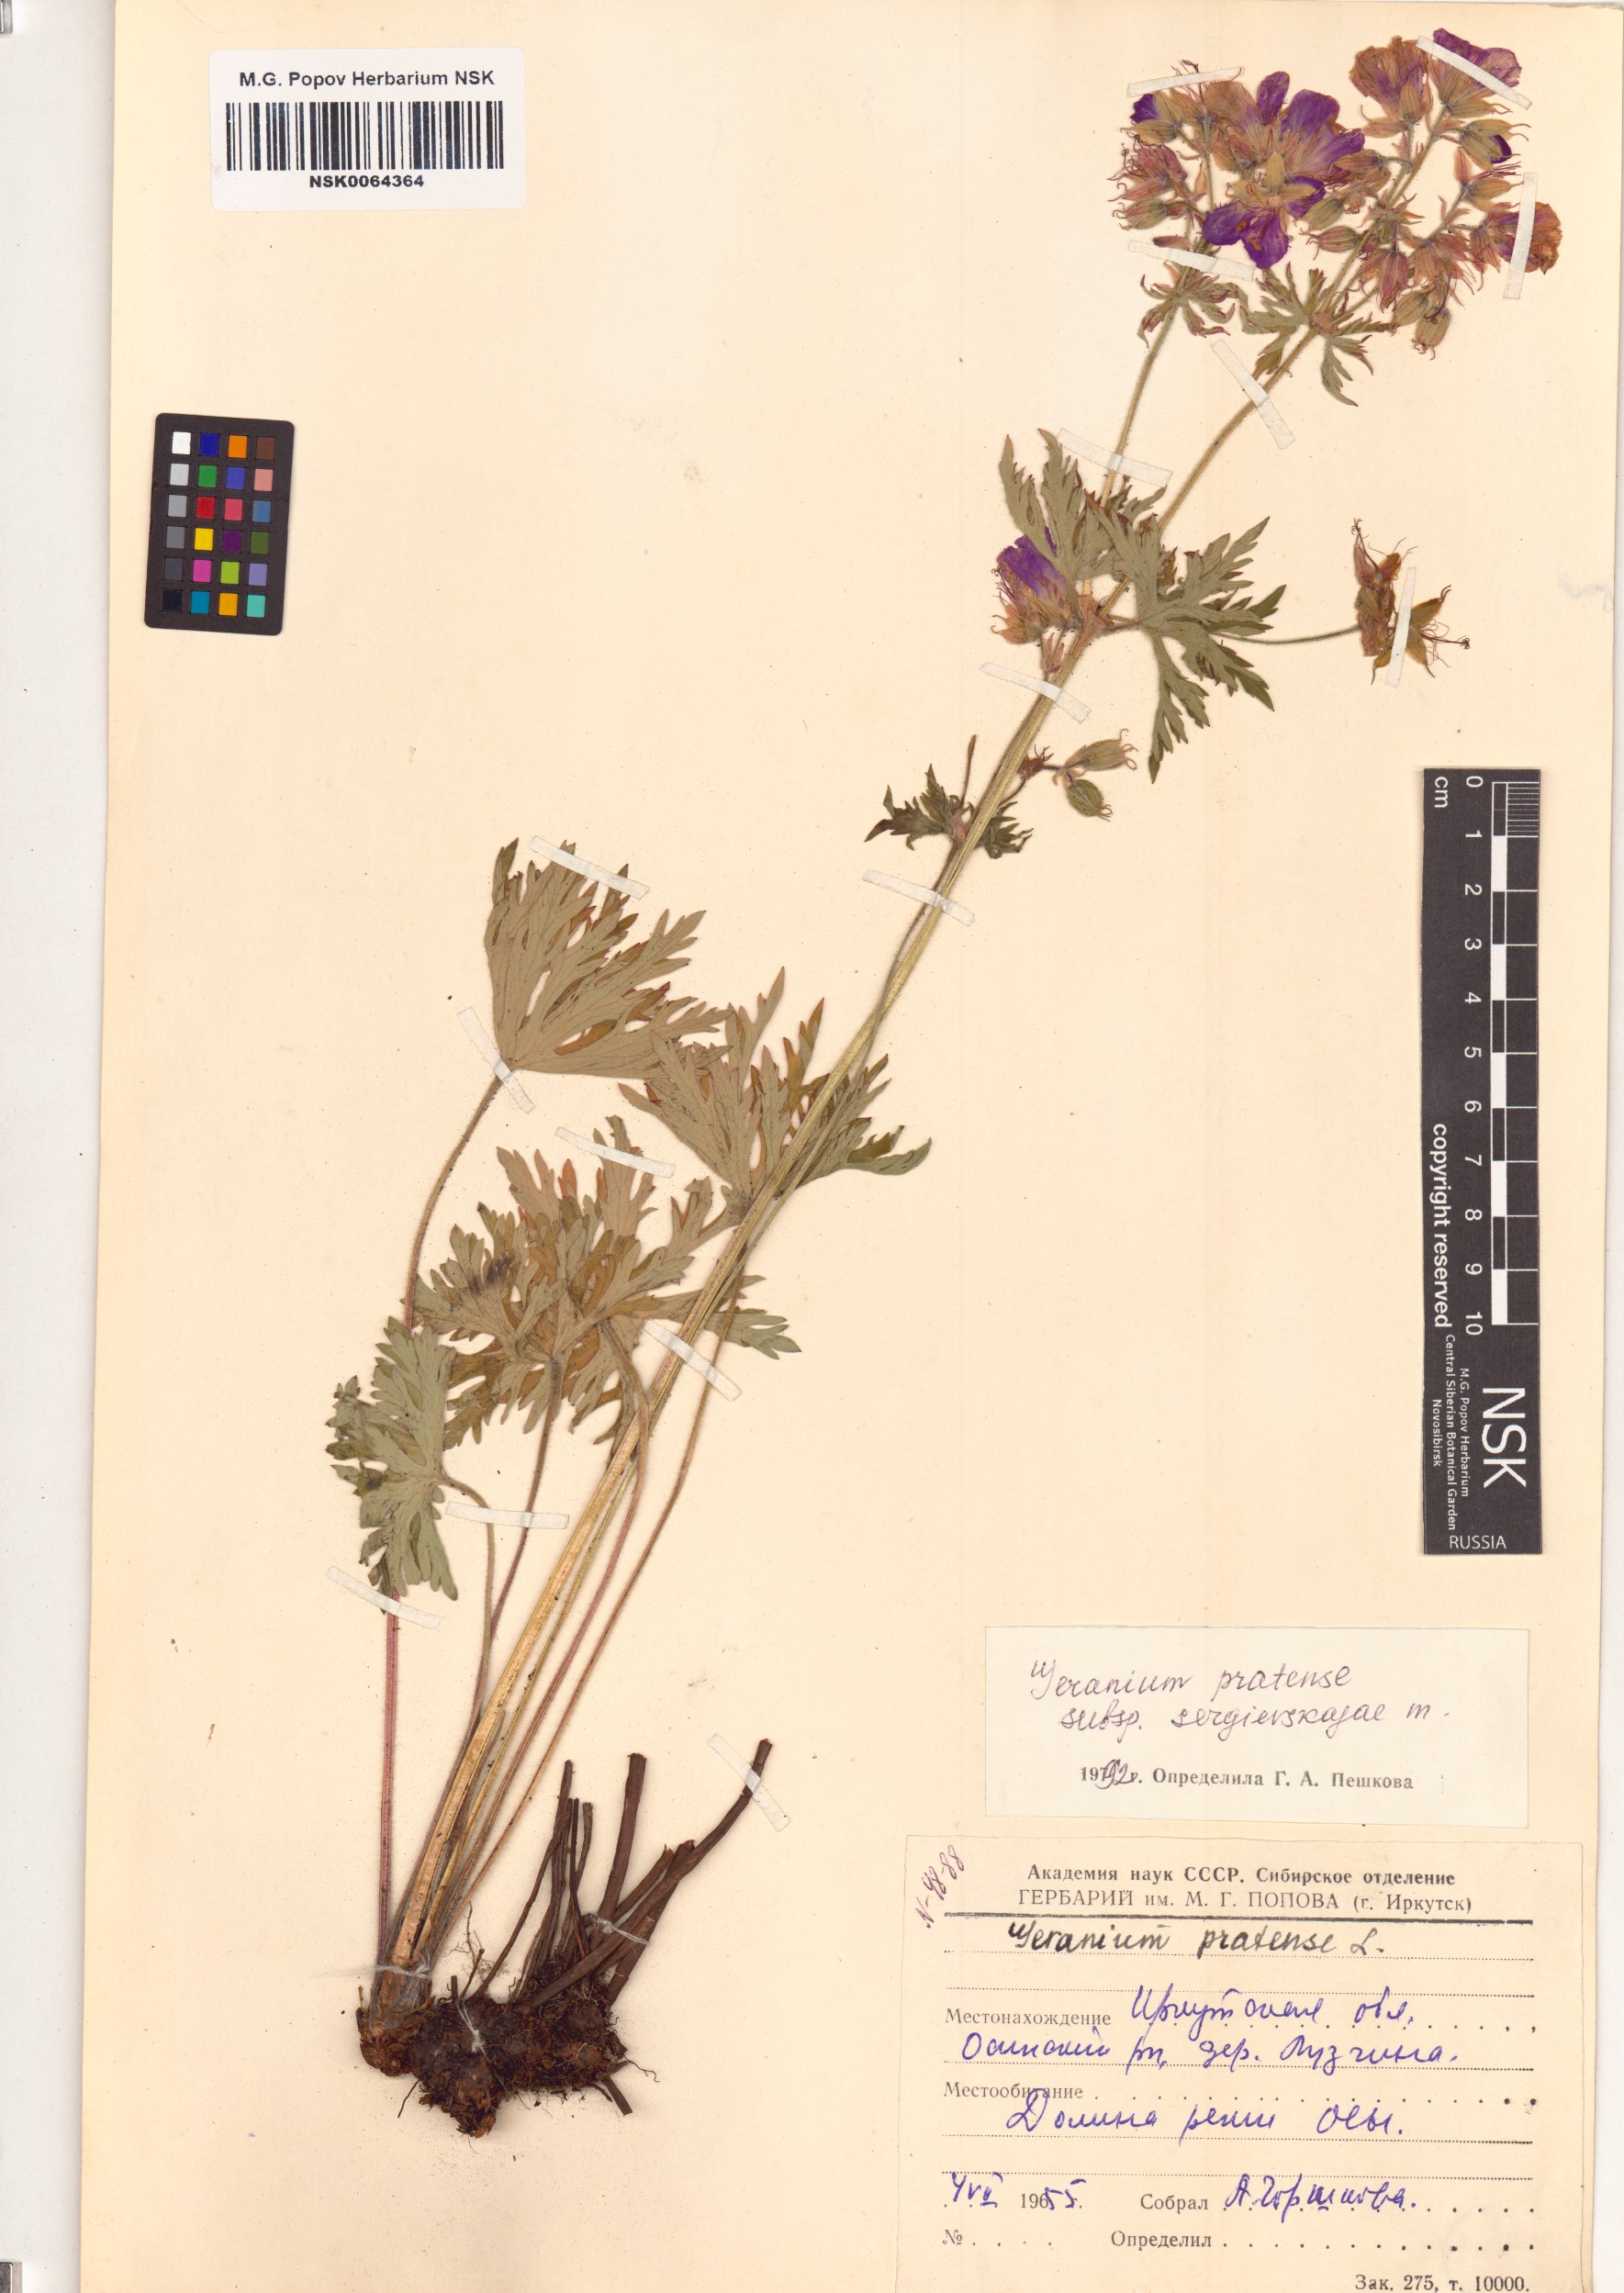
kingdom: Plantae
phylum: Tracheophyta
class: Magnoliopsida
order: Geraniales
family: Geraniaceae
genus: Geranium
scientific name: Geranium pratense
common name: Meadow crane's-bill
